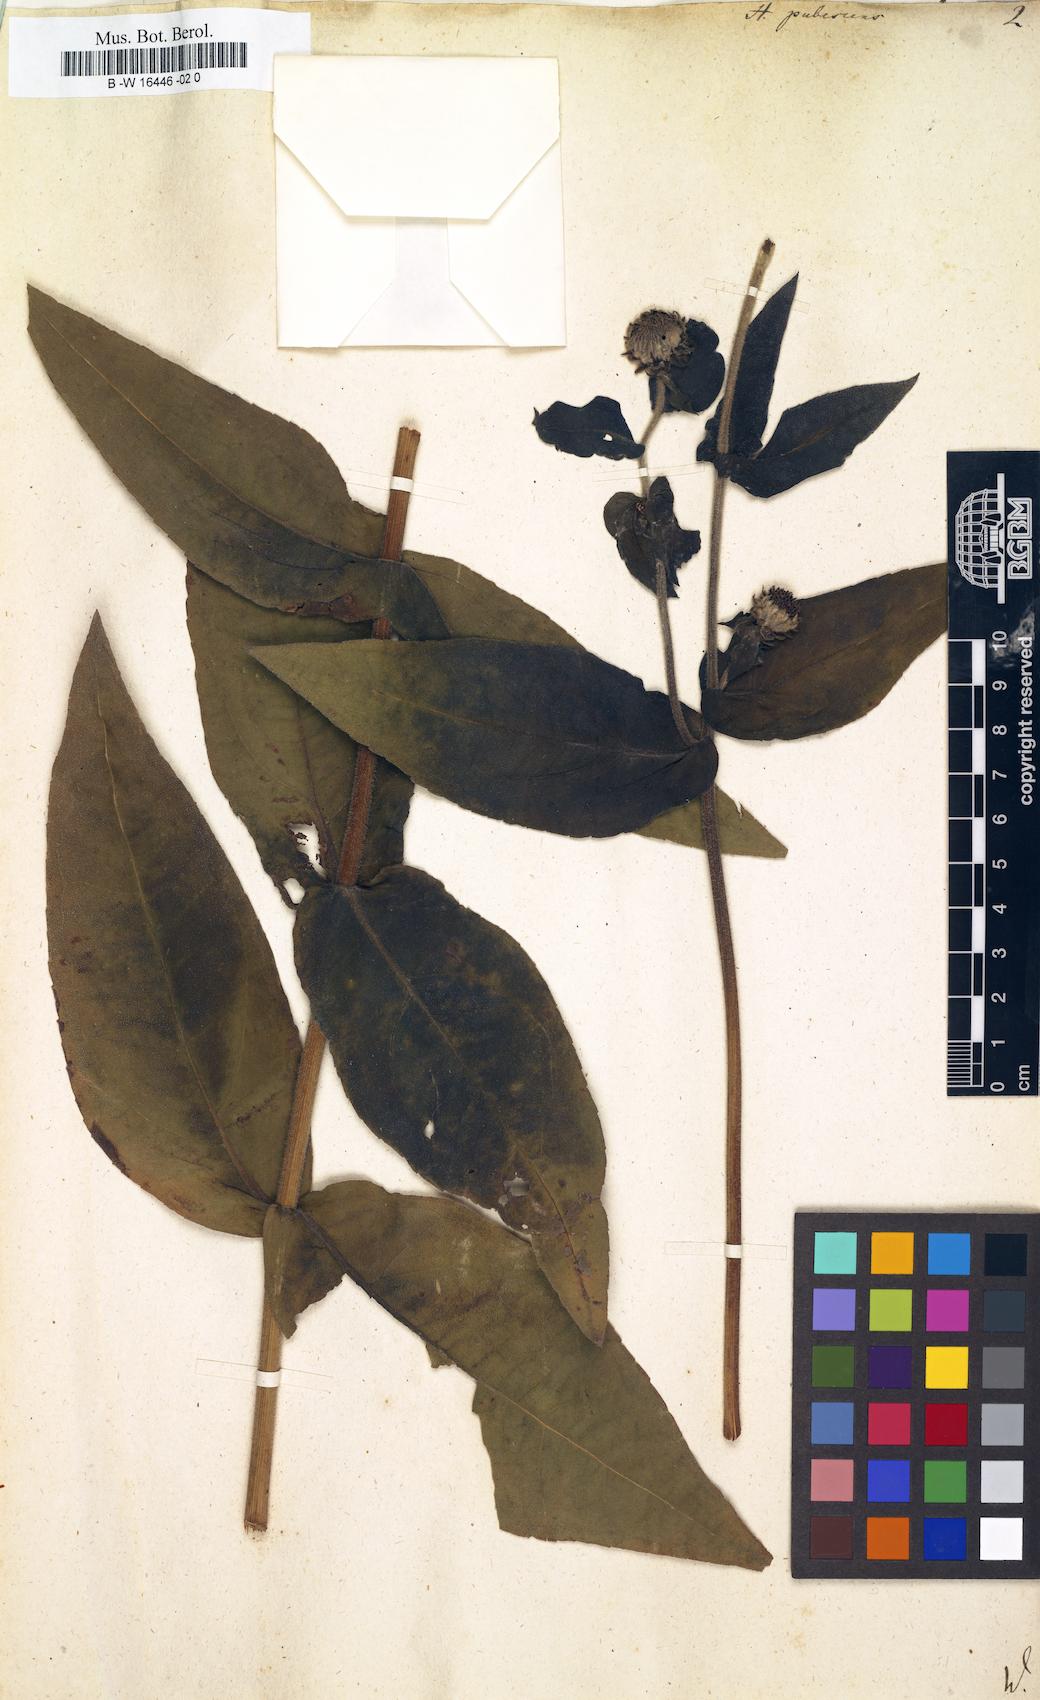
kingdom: Plantae
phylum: Tracheophyta
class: Magnoliopsida
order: Asterales
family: Asteraceae
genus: Helianthus
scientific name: Helianthus pubescens
